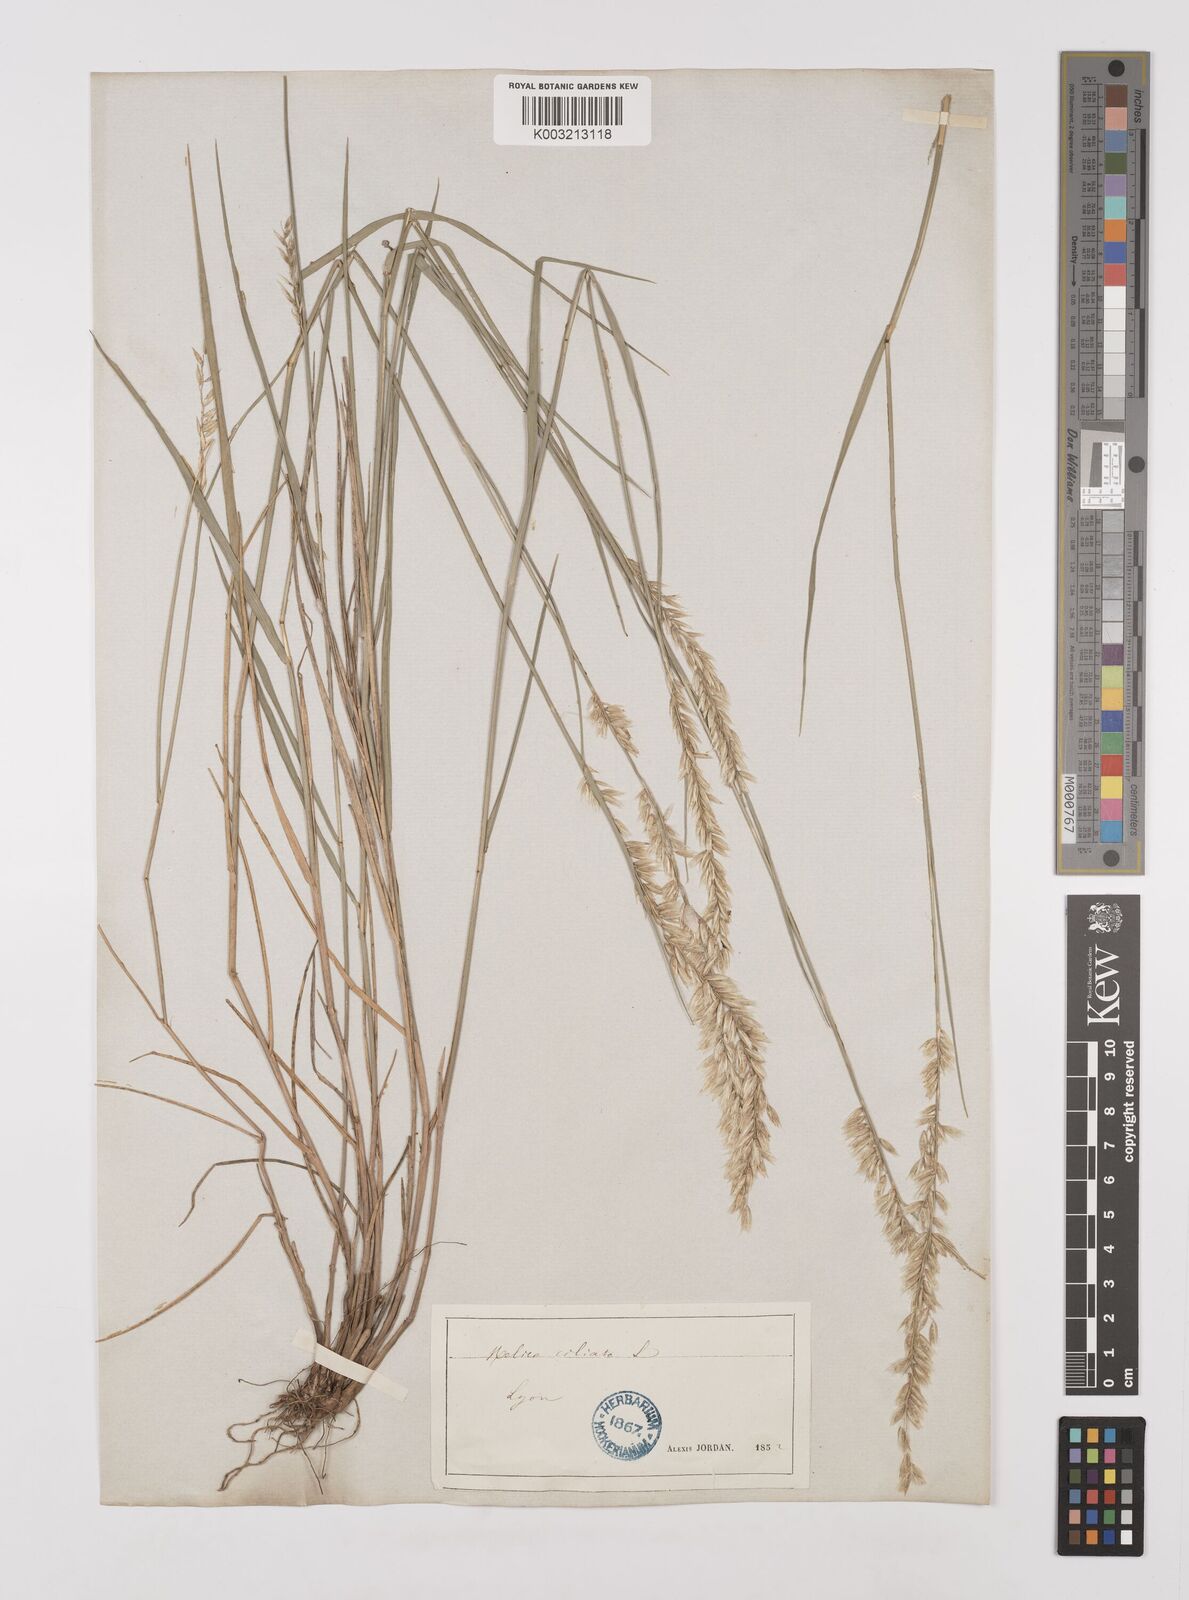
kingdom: Plantae
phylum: Tracheophyta
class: Liliopsida
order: Poales
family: Poaceae
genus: Melica
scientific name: Melica ciliata
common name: Hairy melicgrass
